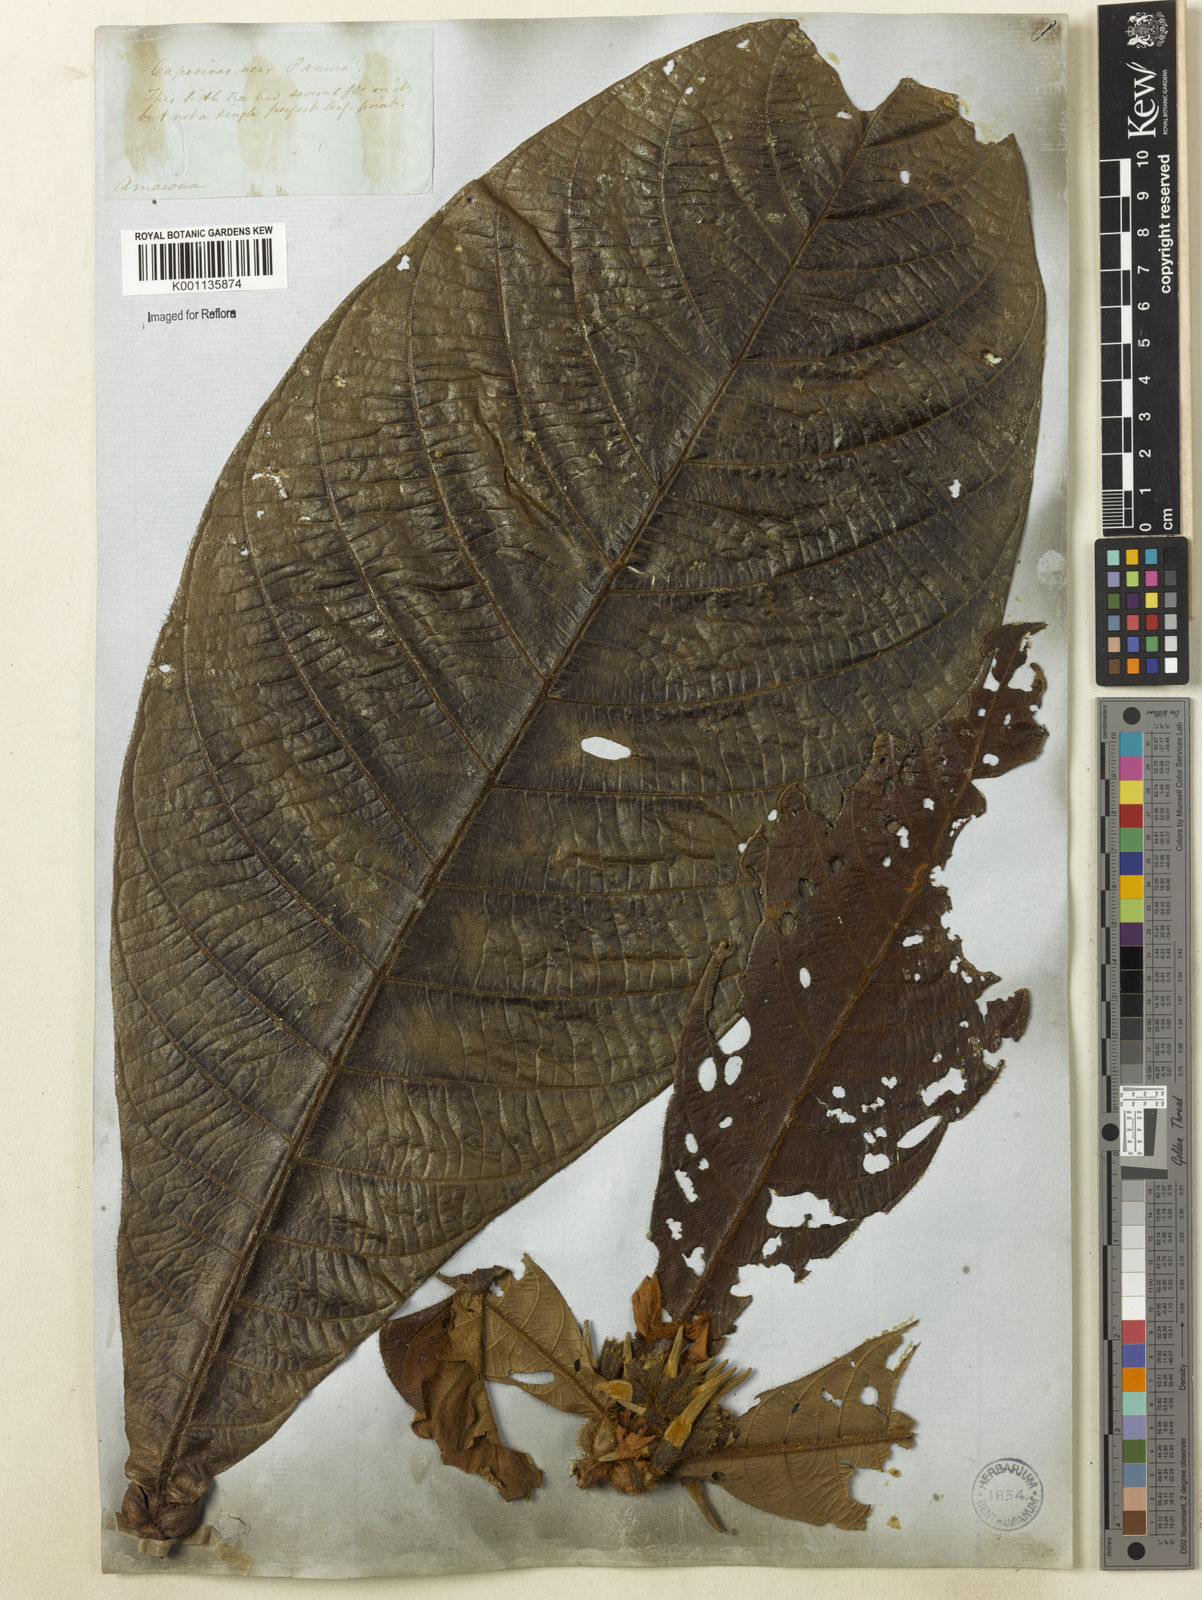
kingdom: Plantae
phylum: Tracheophyta
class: Magnoliopsida
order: Gentianales
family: Rubiaceae
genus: Duroia
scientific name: Duroia saccifera
